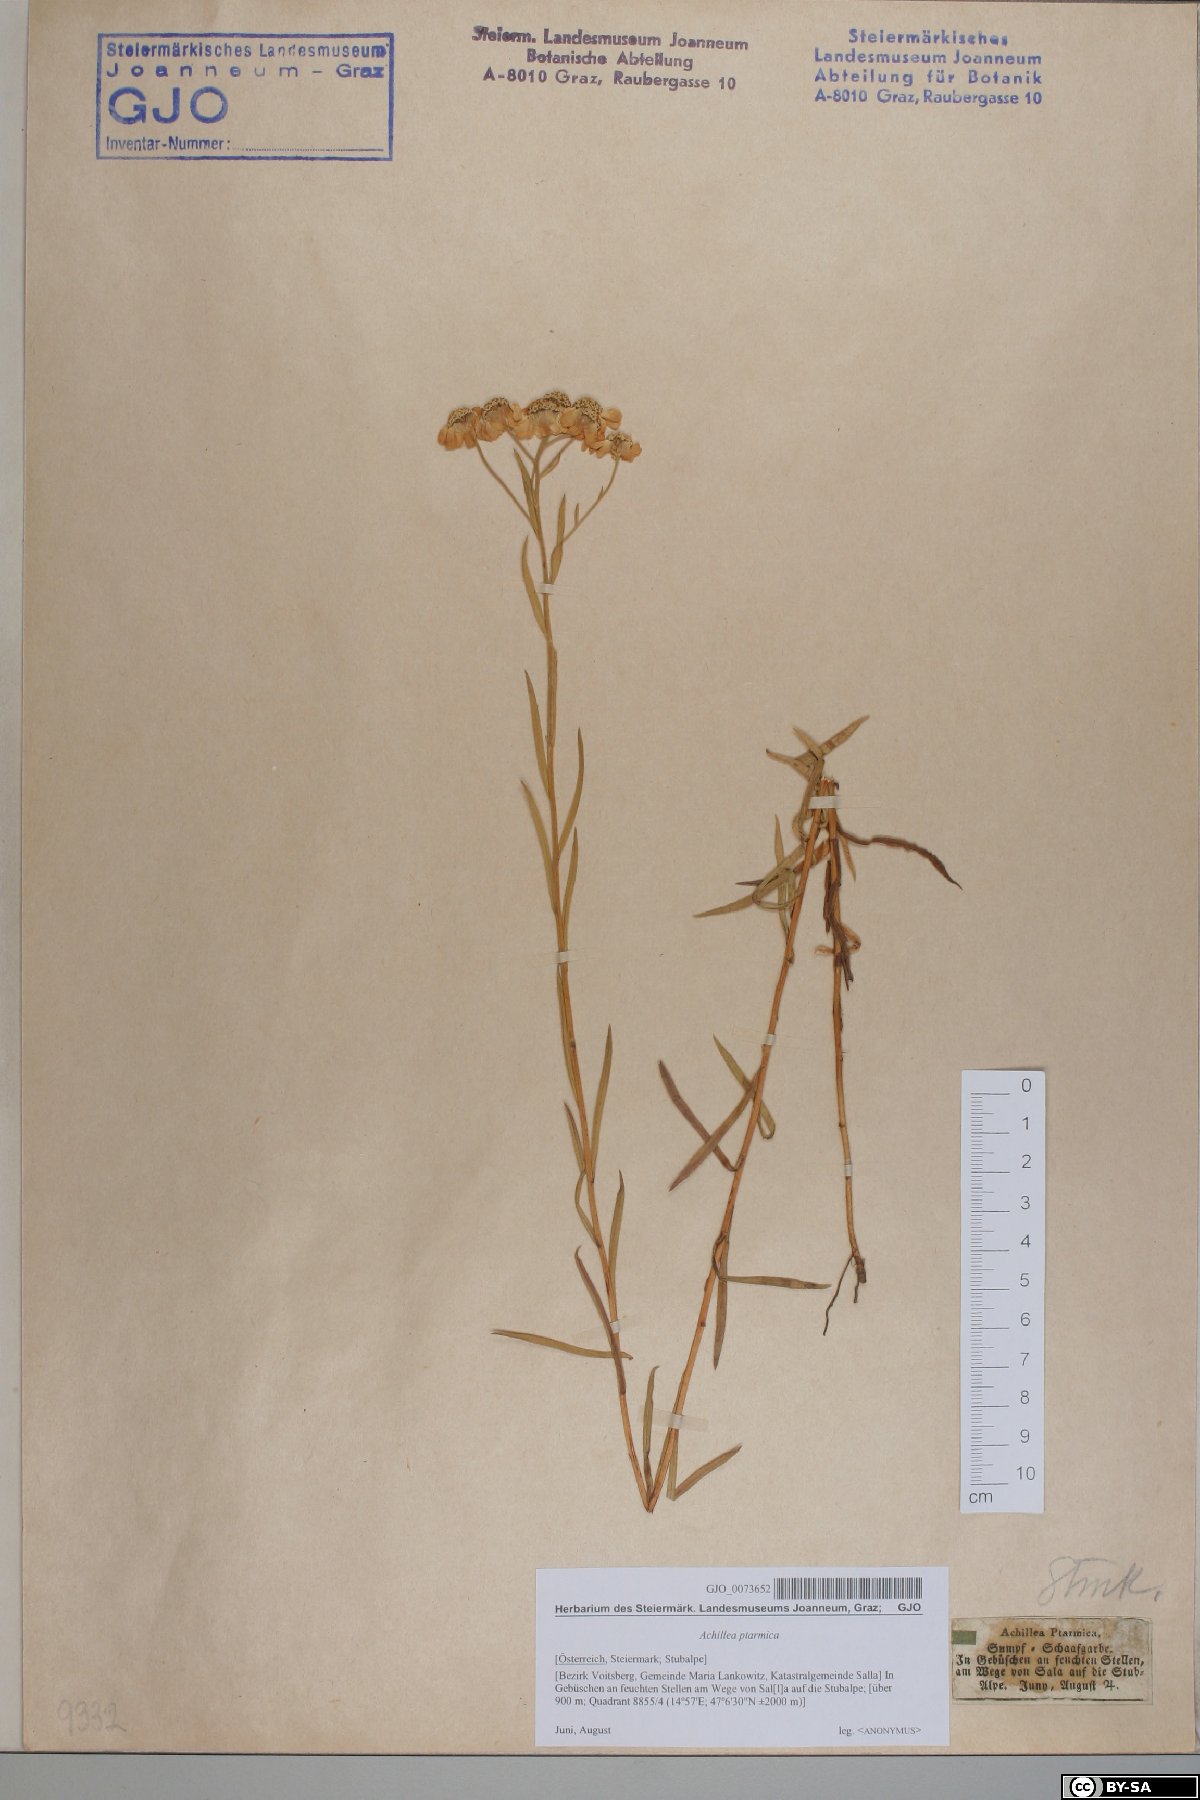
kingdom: Plantae
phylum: Tracheophyta
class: Magnoliopsida
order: Asterales
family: Asteraceae
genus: Achillea
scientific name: Achillea ptarmica
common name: Sneezeweed
